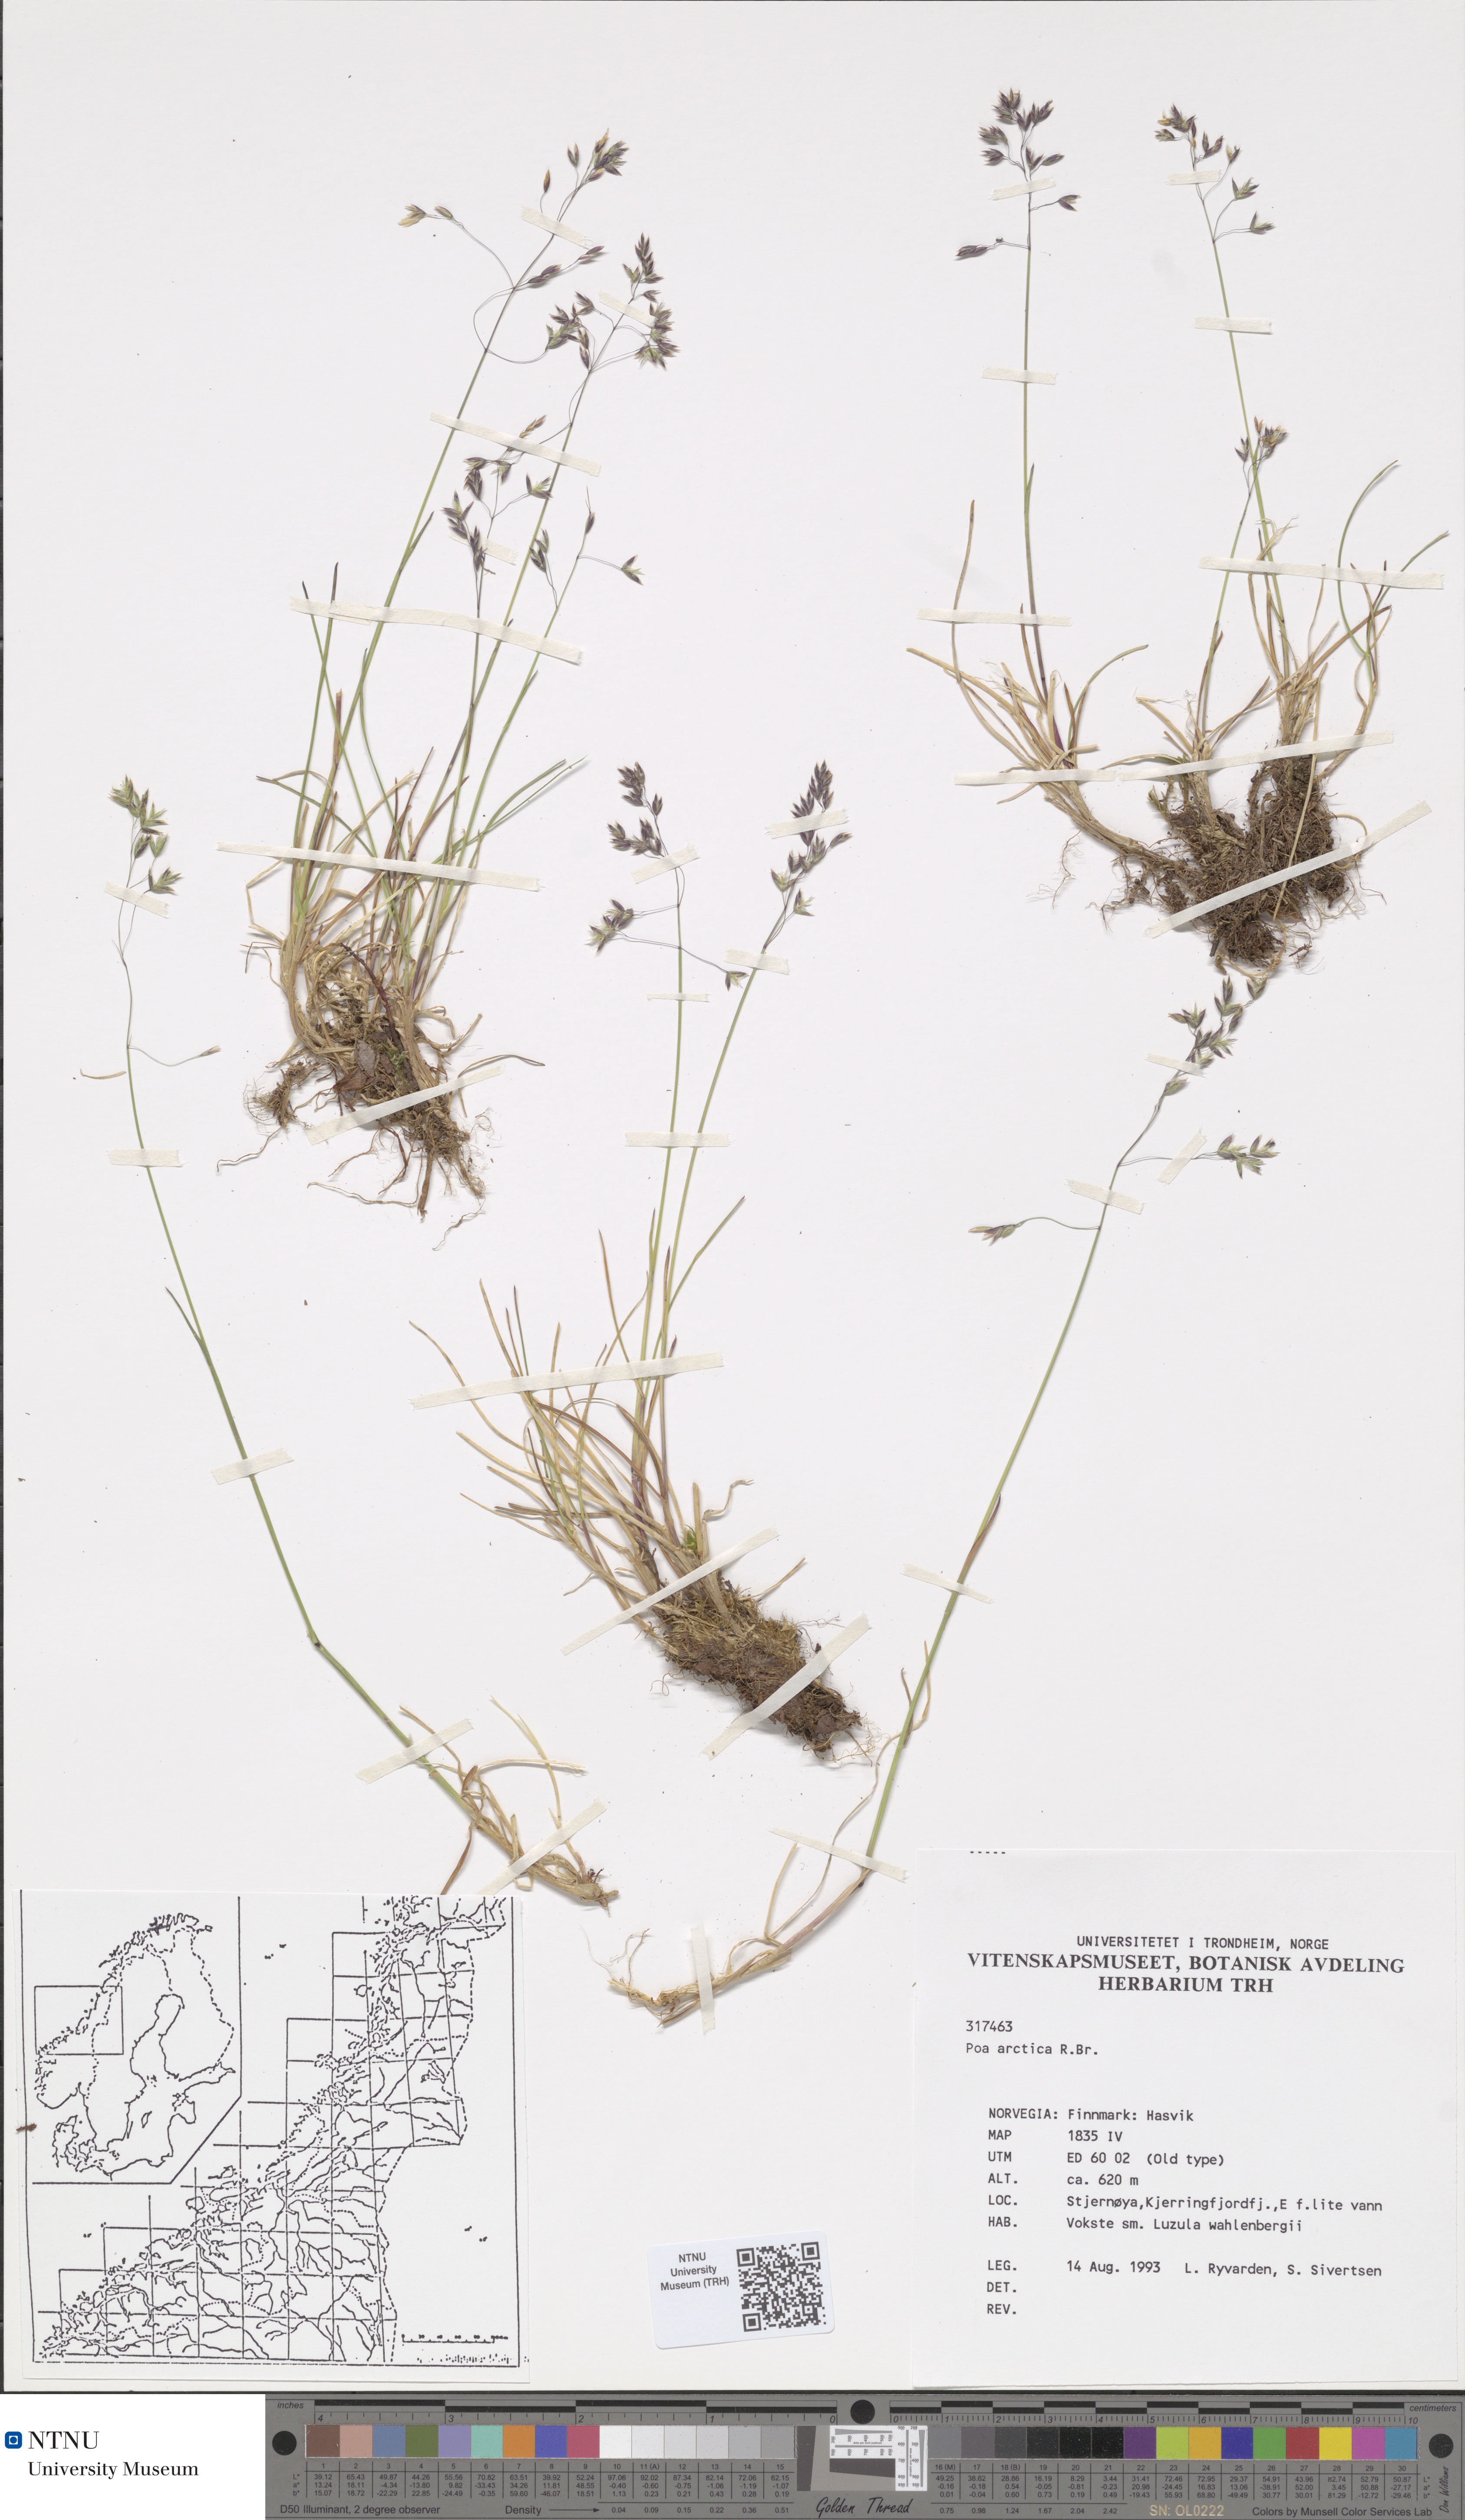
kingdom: Plantae
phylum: Tracheophyta
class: Liliopsida
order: Poales
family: Poaceae
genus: Poa
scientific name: Poa arctica
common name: Arctic bluegrass
